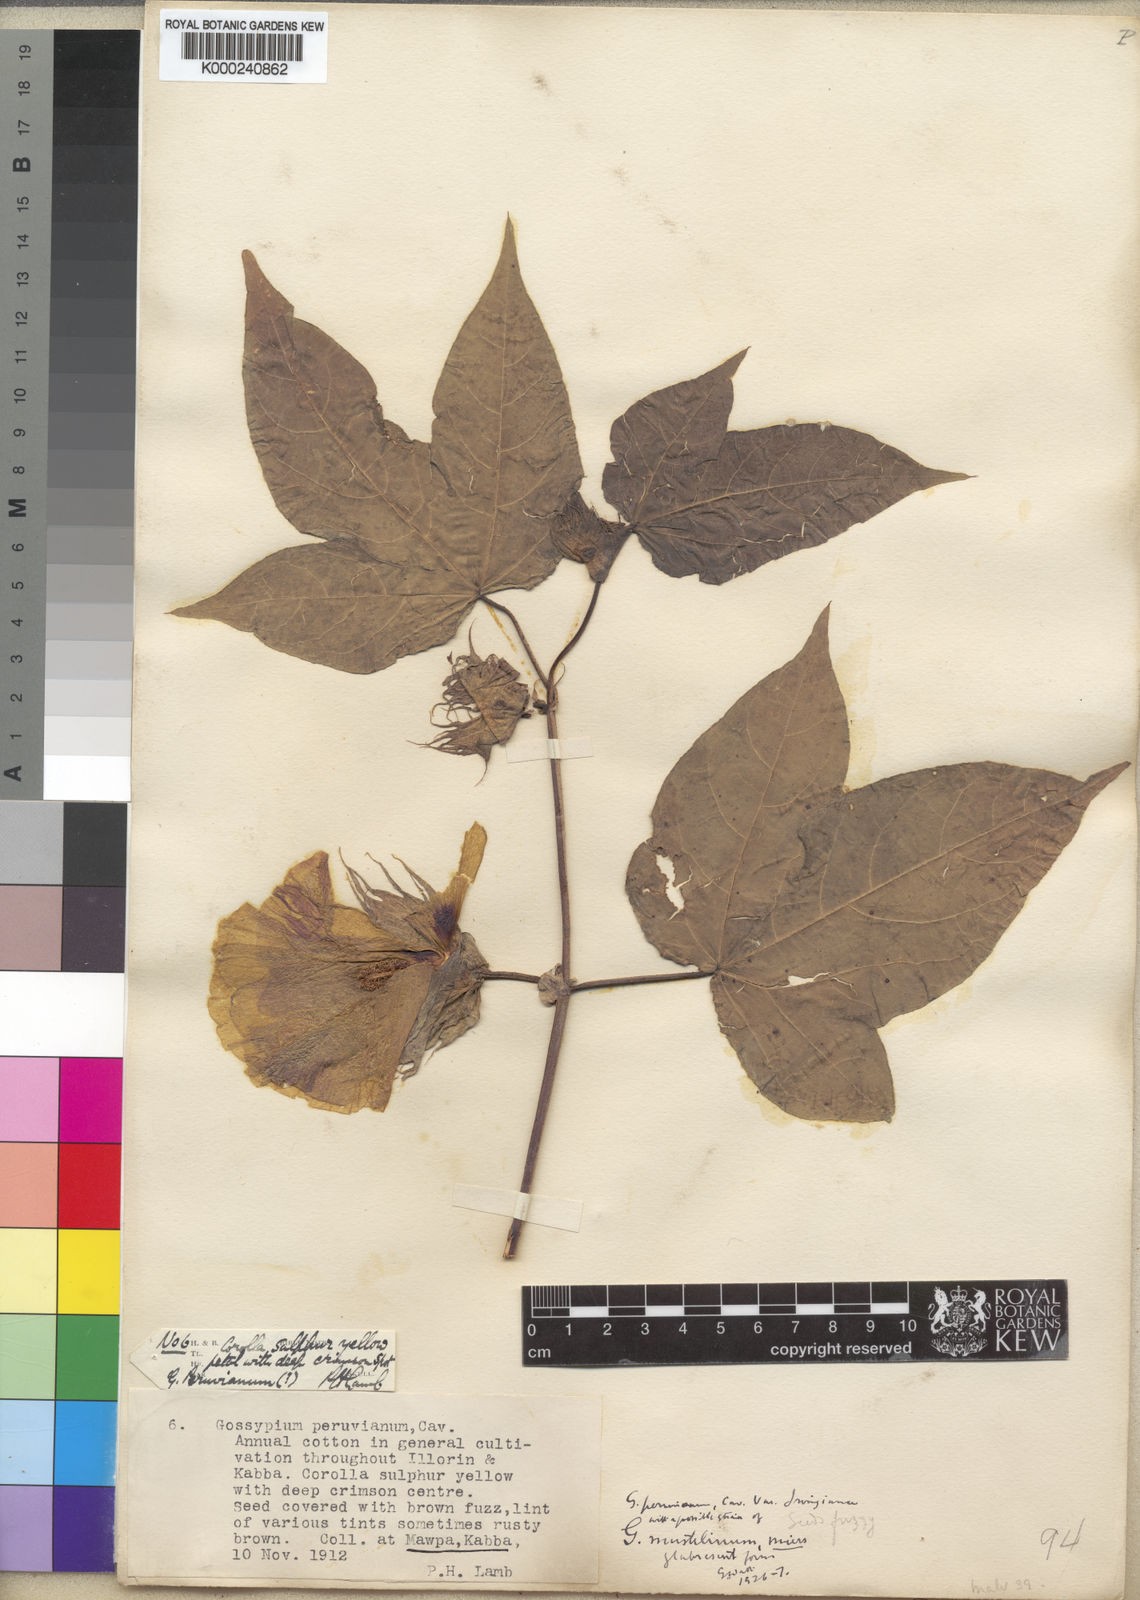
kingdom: Plantae
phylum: Tracheophyta
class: Magnoliopsida
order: Malvales
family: Malvaceae
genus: Gossypium
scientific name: Gossypium barbadense
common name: Creole cotton
